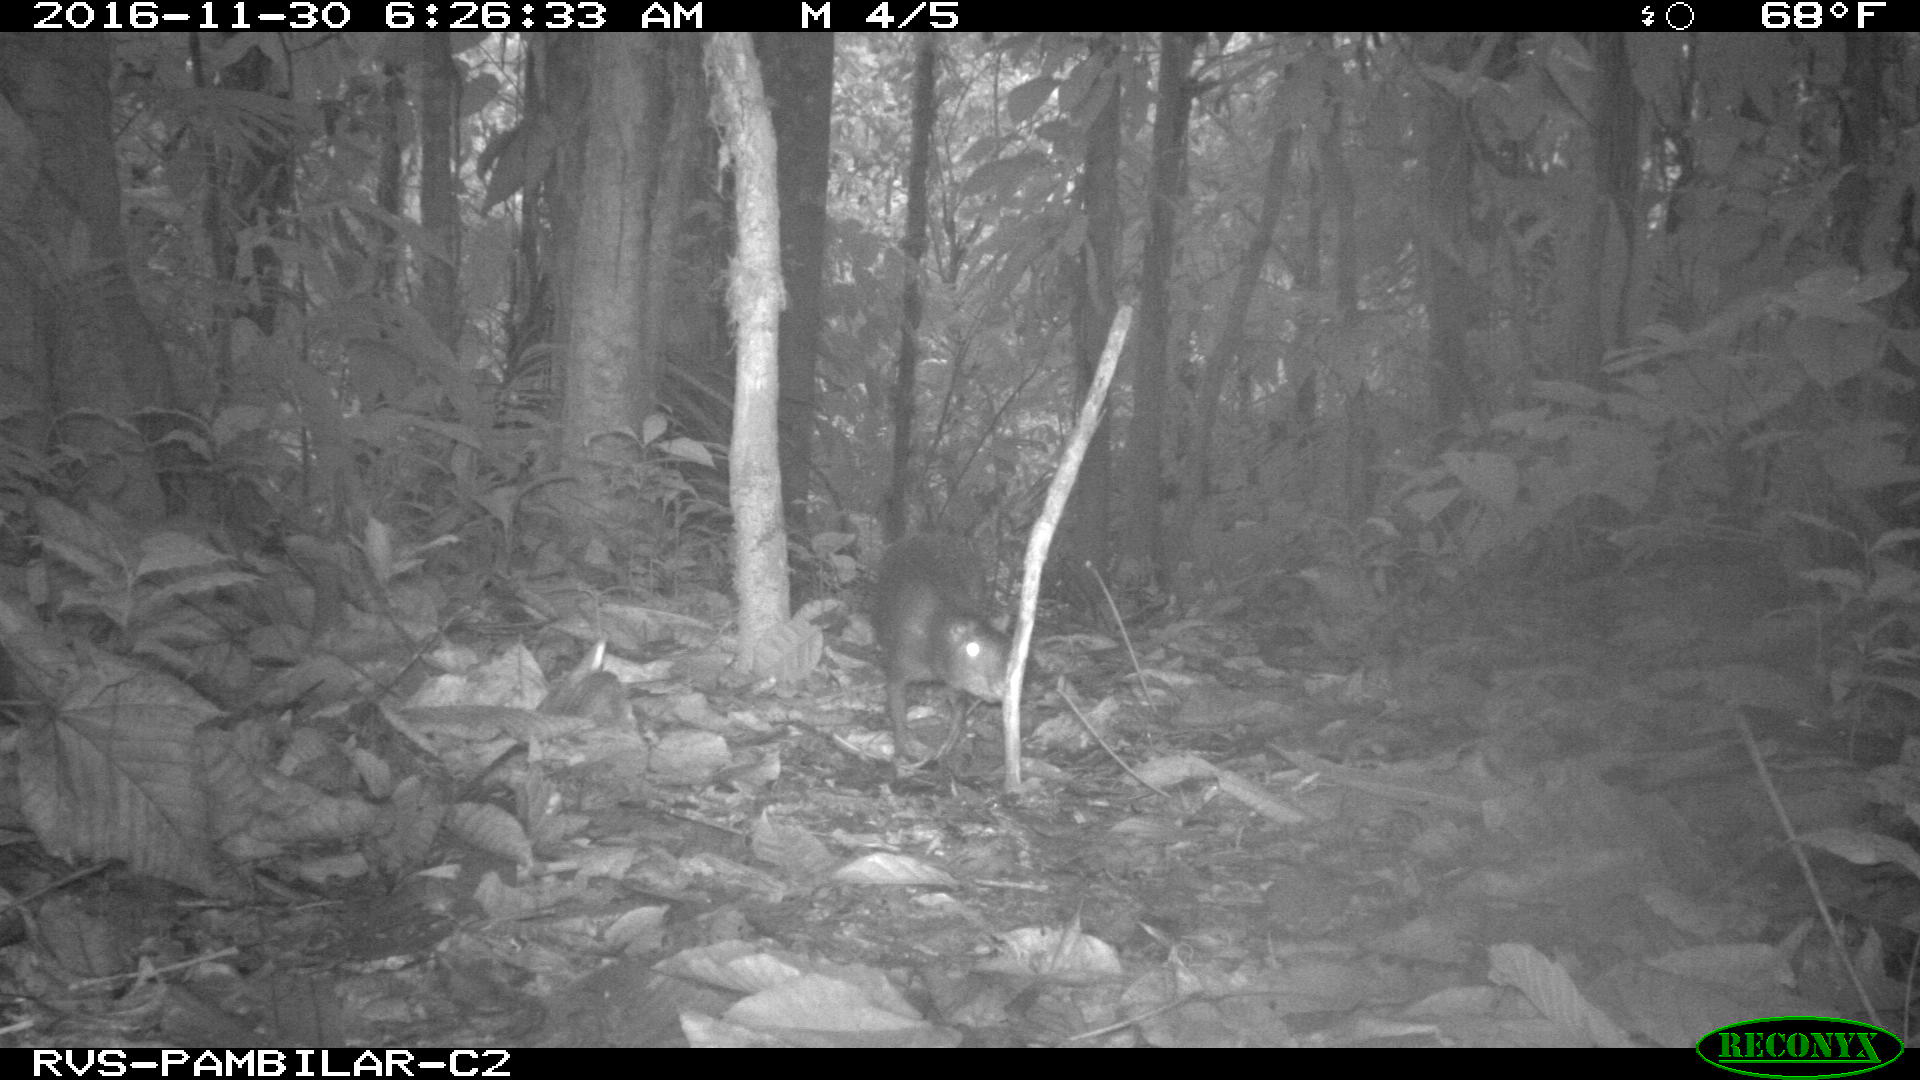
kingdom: Animalia
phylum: Chordata
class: Mammalia
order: Rodentia
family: Dasyproctidae
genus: Dasyprocta
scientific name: Dasyprocta punctata
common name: Central american agouti
